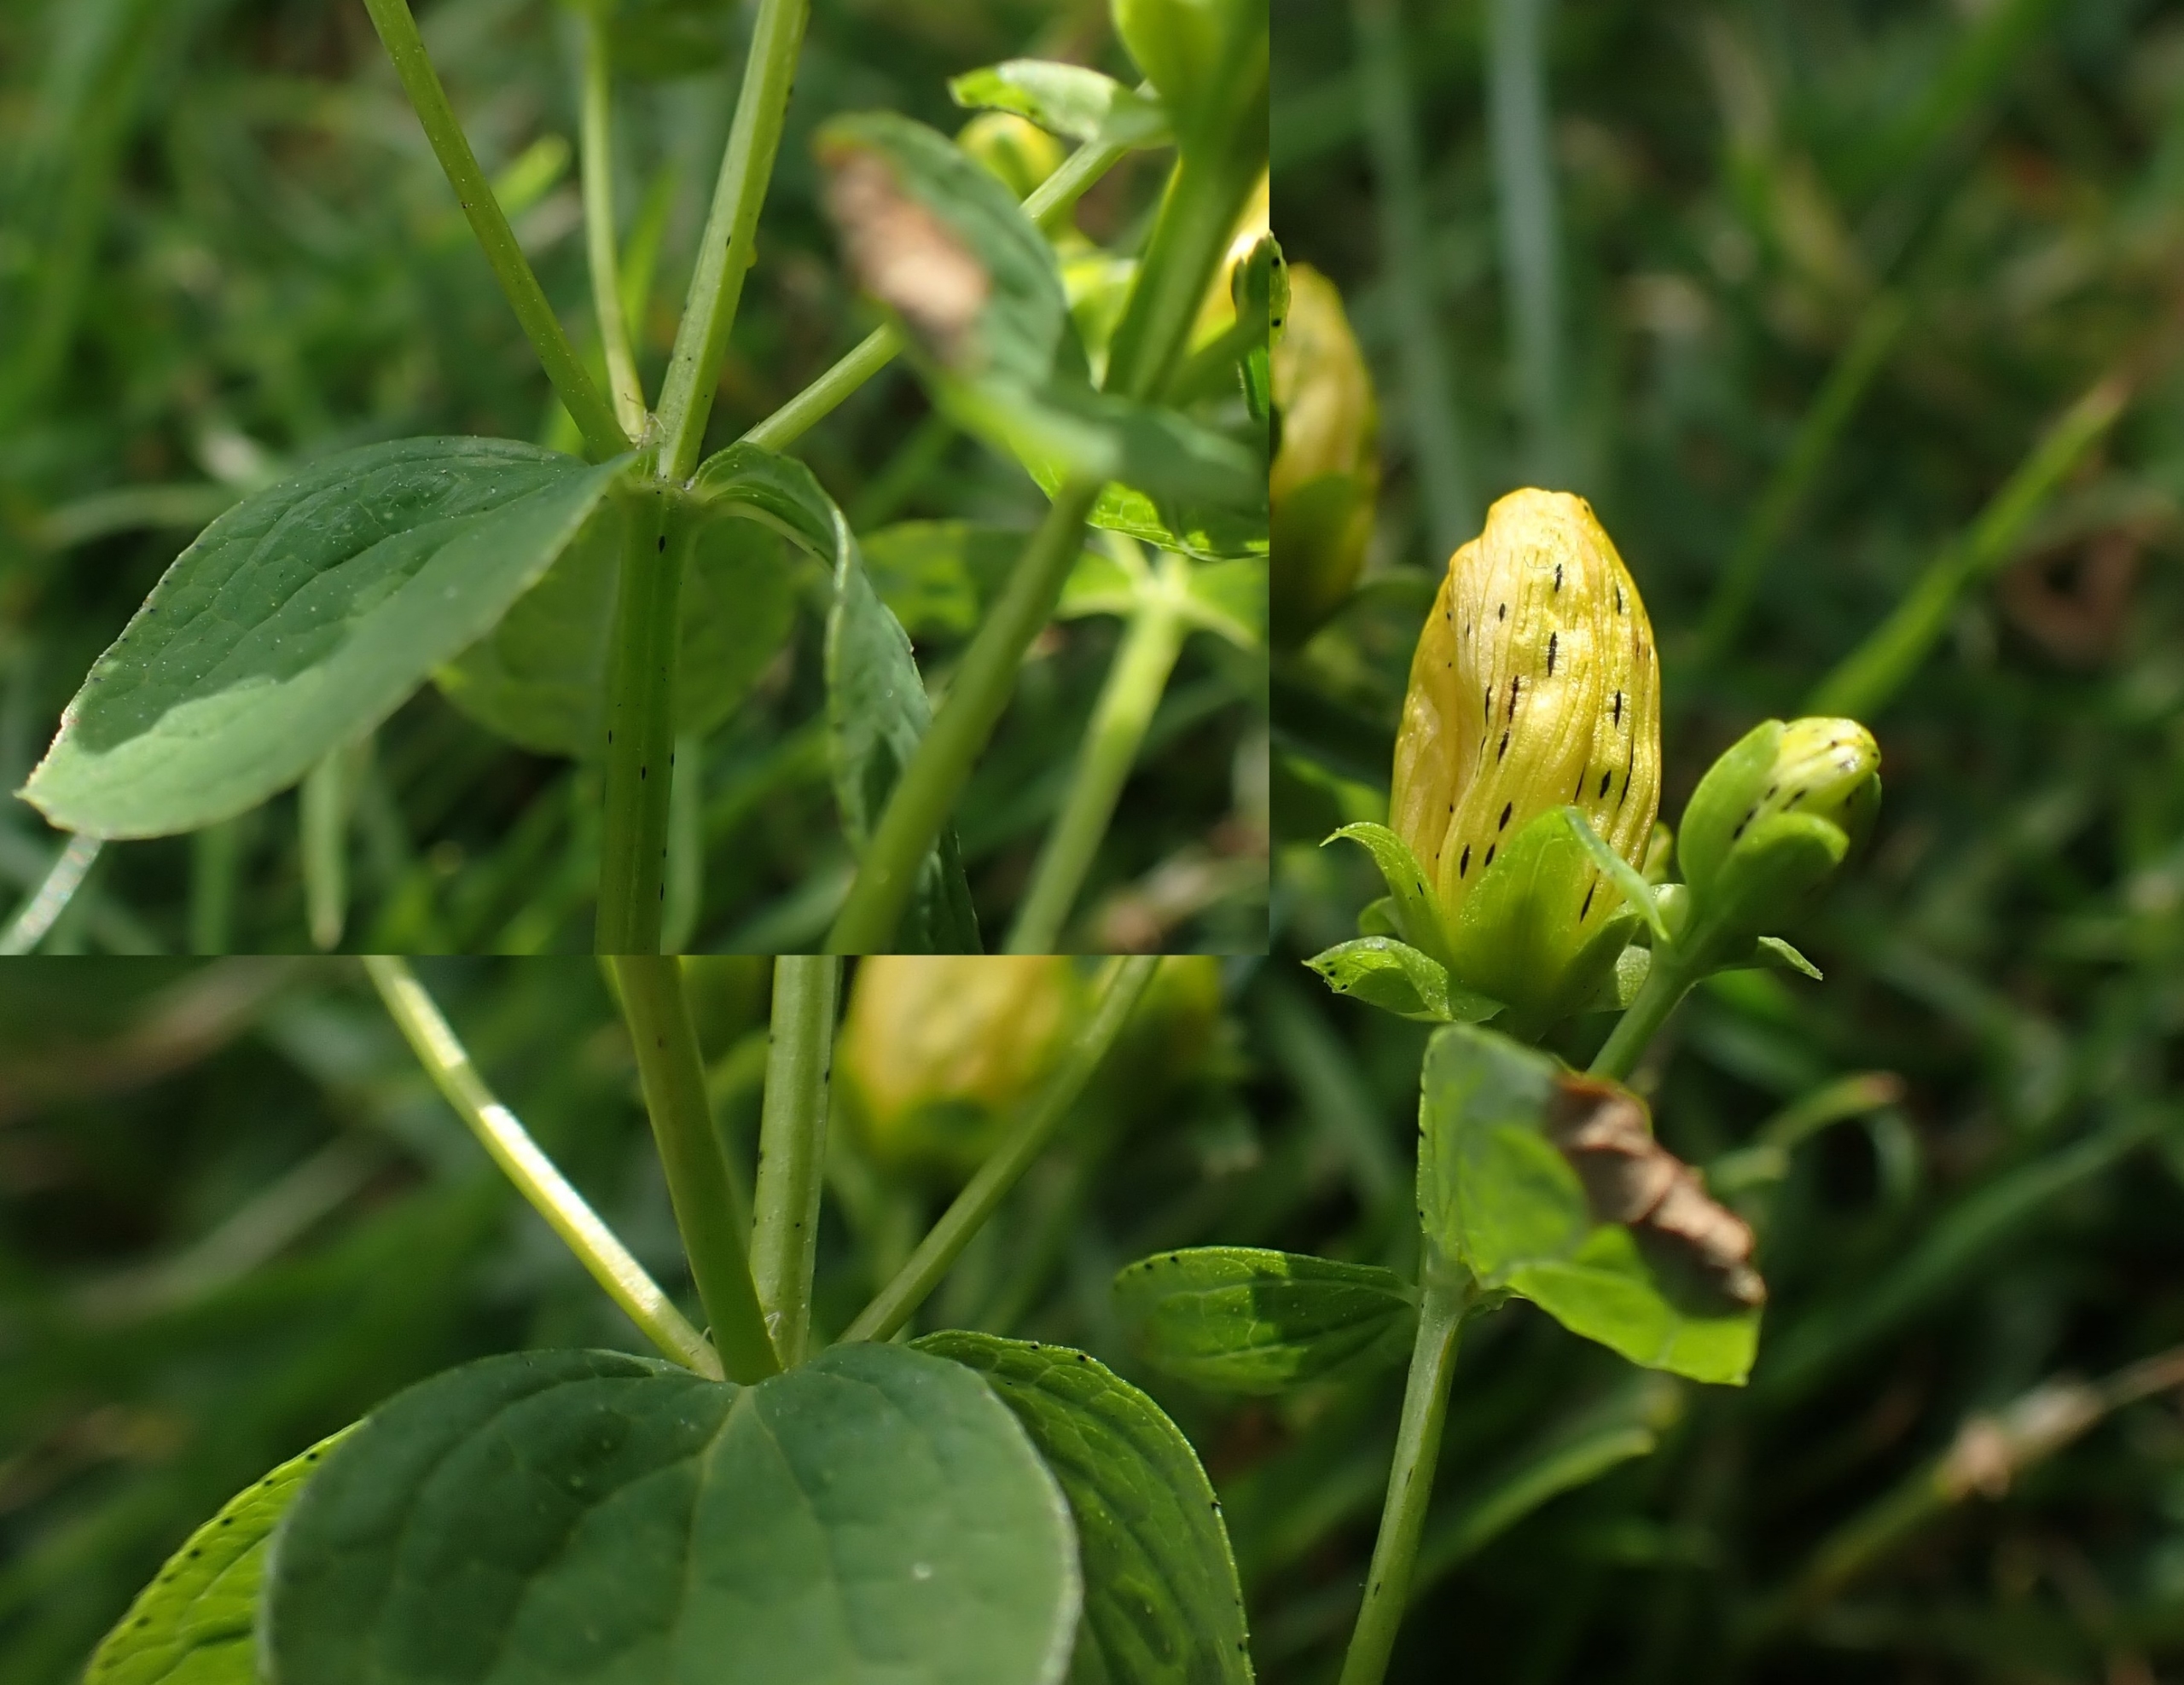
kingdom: Plantae
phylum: Tracheophyta
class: Magnoliopsida
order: Malpighiales
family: Hypericaceae
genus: Hypericum
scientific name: Hypericum maculatum
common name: Kantet perikon
